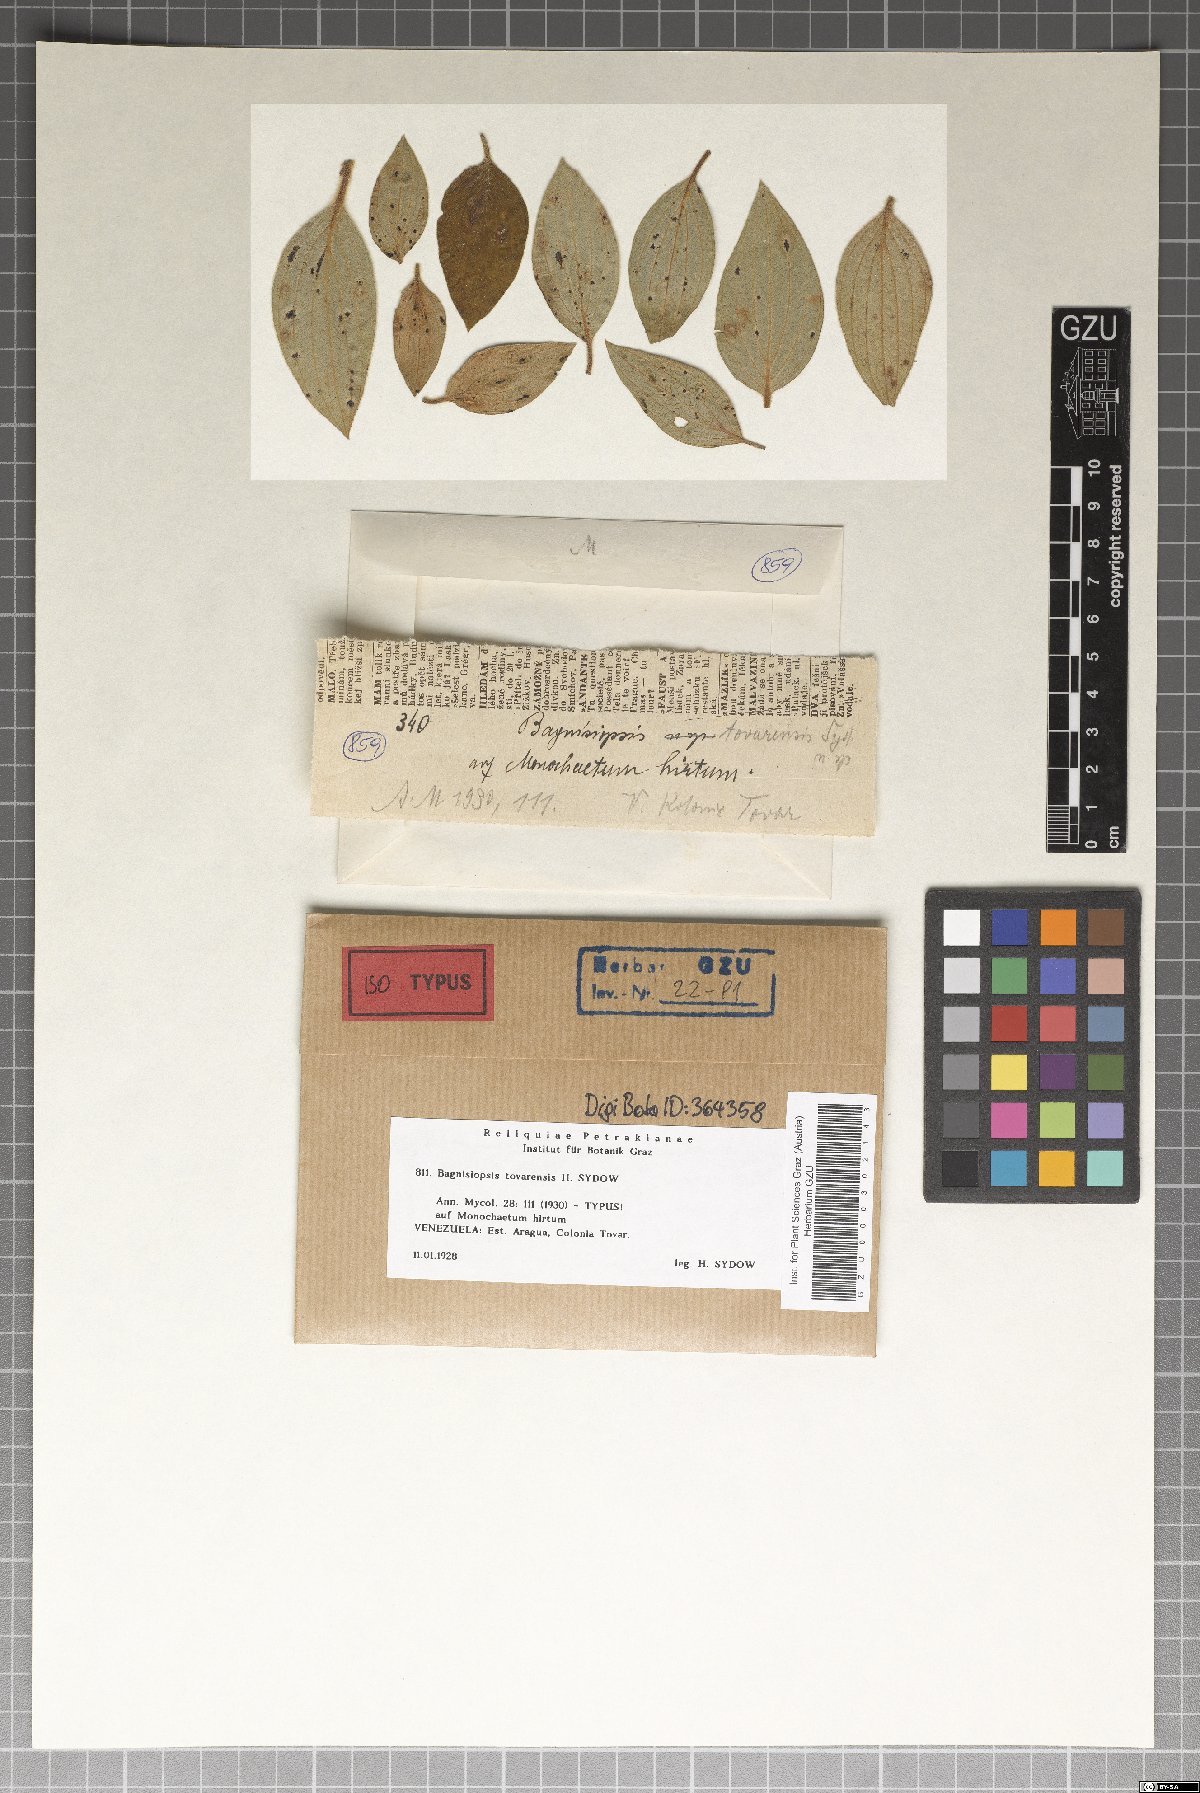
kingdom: Fungi
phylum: Ascomycota
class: Sordariomycetes
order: Phyllachorales
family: Phyllachoraceae
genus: Bagnisiopsis
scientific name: Bagnisiopsis
